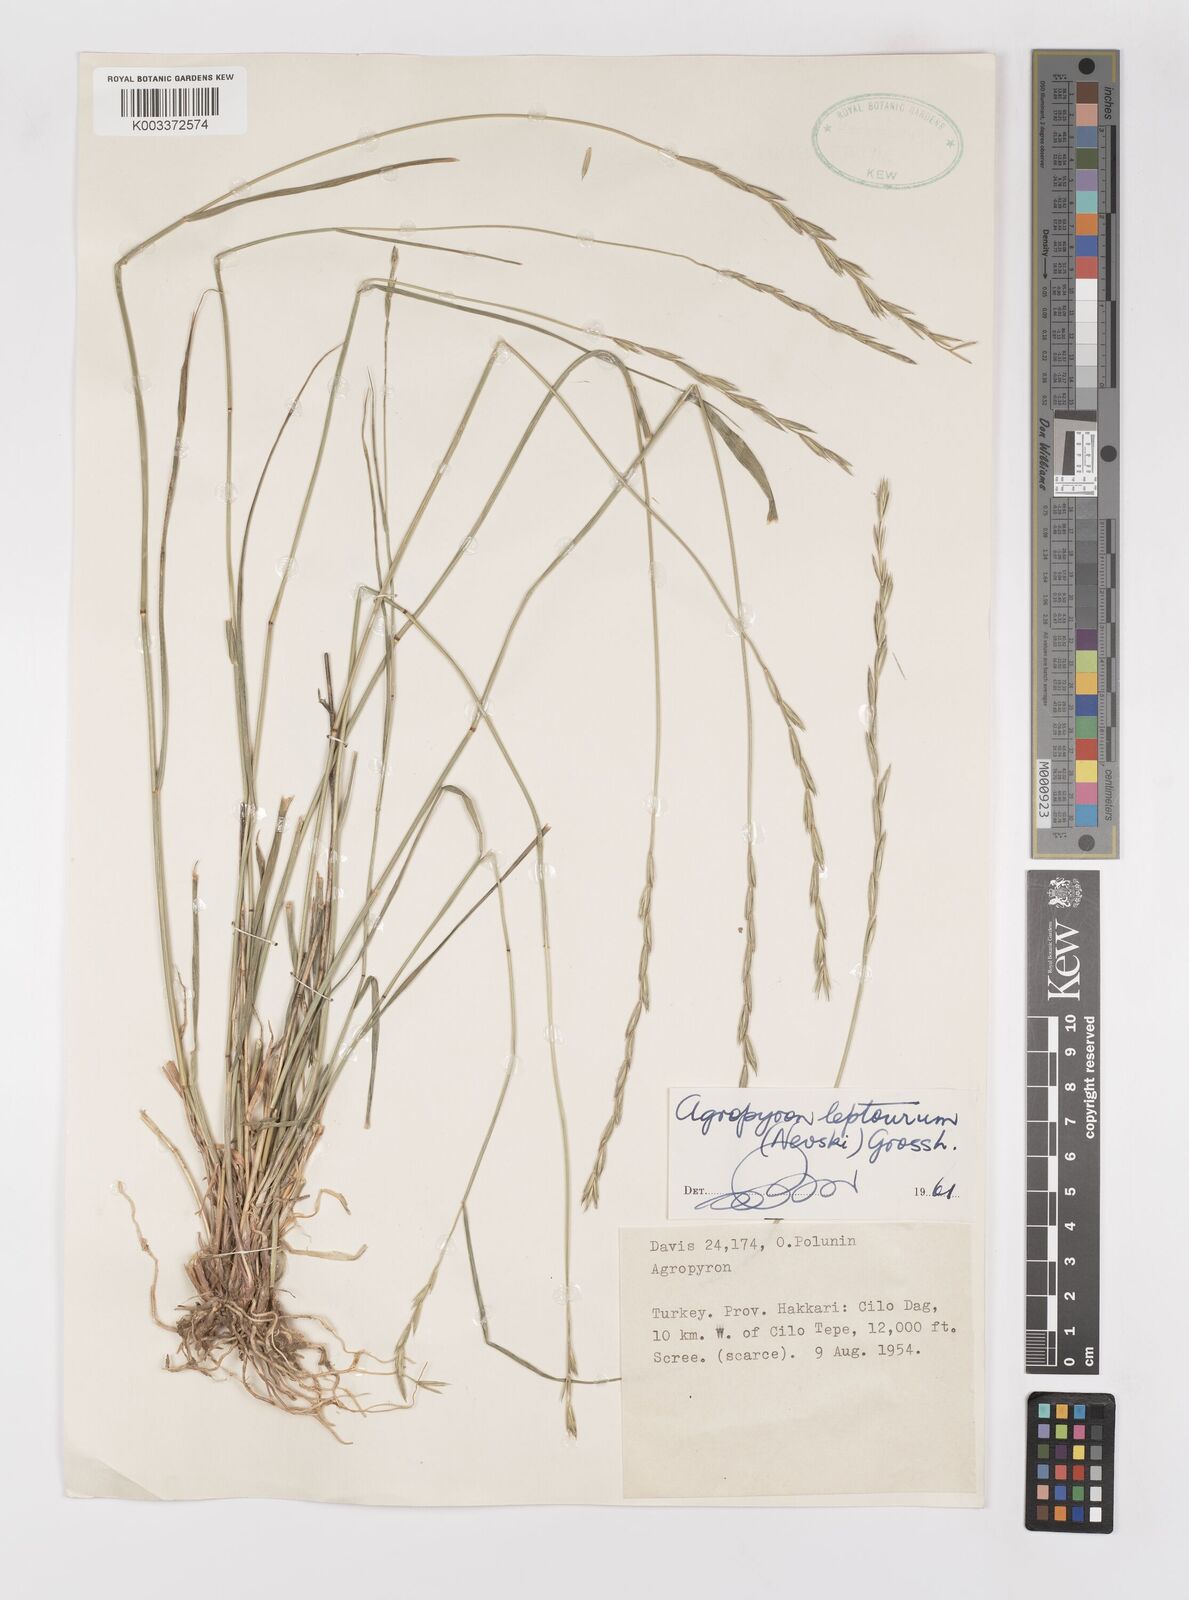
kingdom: Plantae
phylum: Tracheophyta
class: Liliopsida
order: Poales
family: Poaceae
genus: Elymus
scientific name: Elymus transhyrcanus
